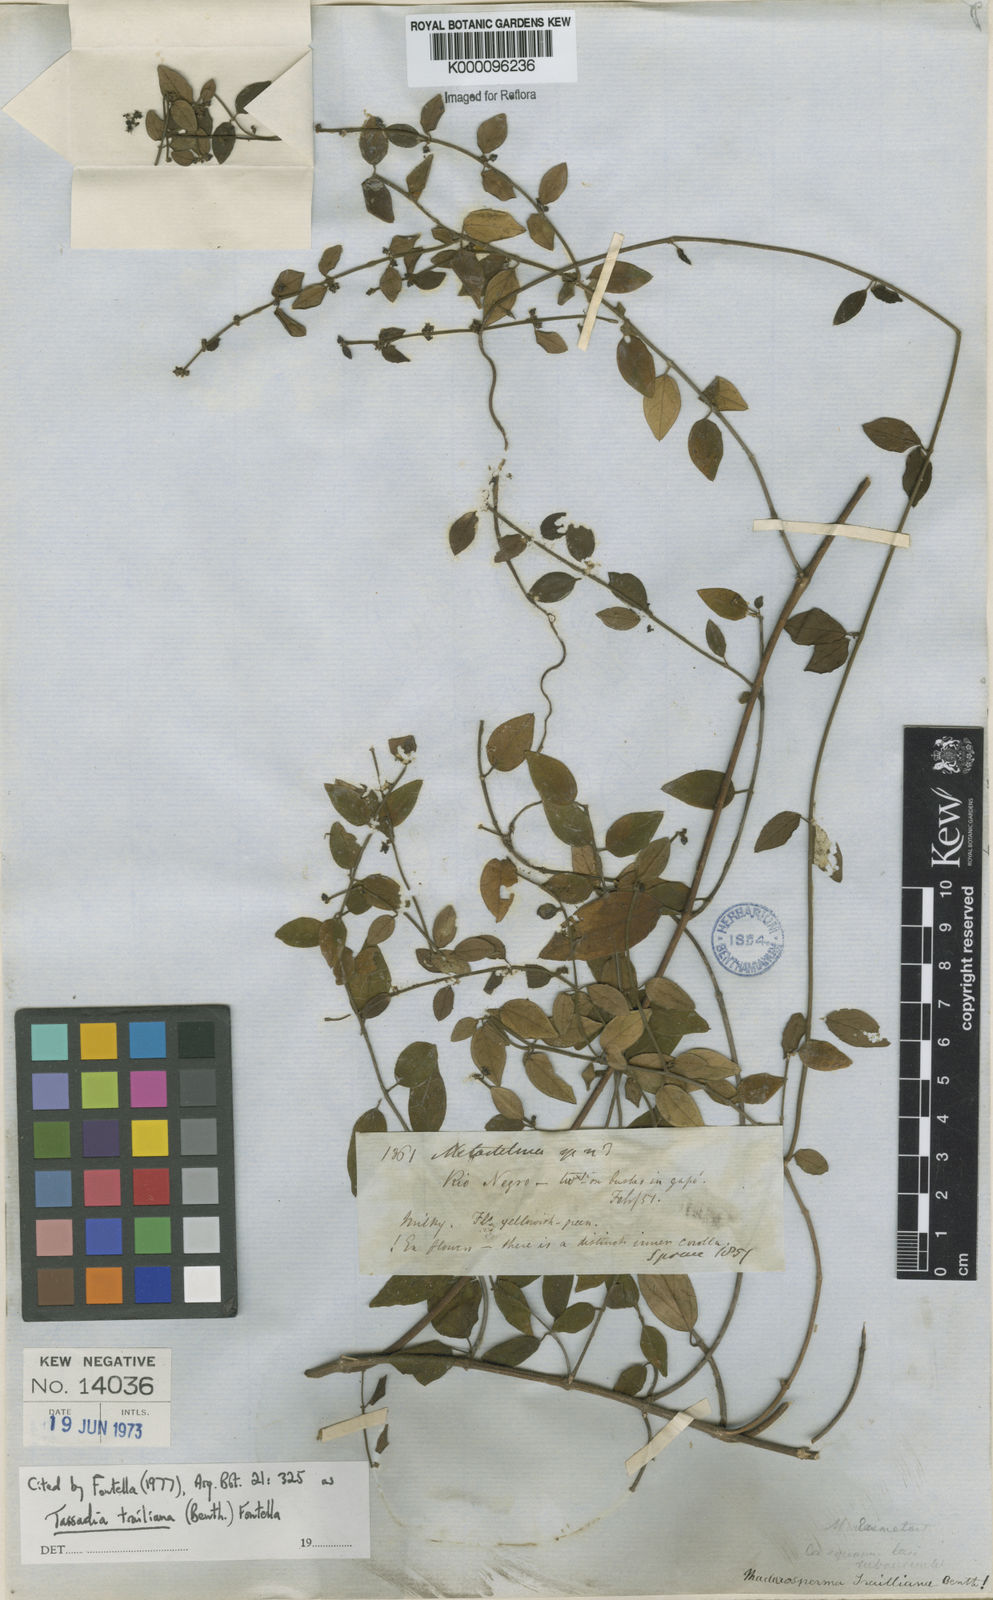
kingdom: Plantae
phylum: Tracheophyta
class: Magnoliopsida
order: Gentianales
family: Apocynaceae
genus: Tassadia
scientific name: Tassadia trailiana
